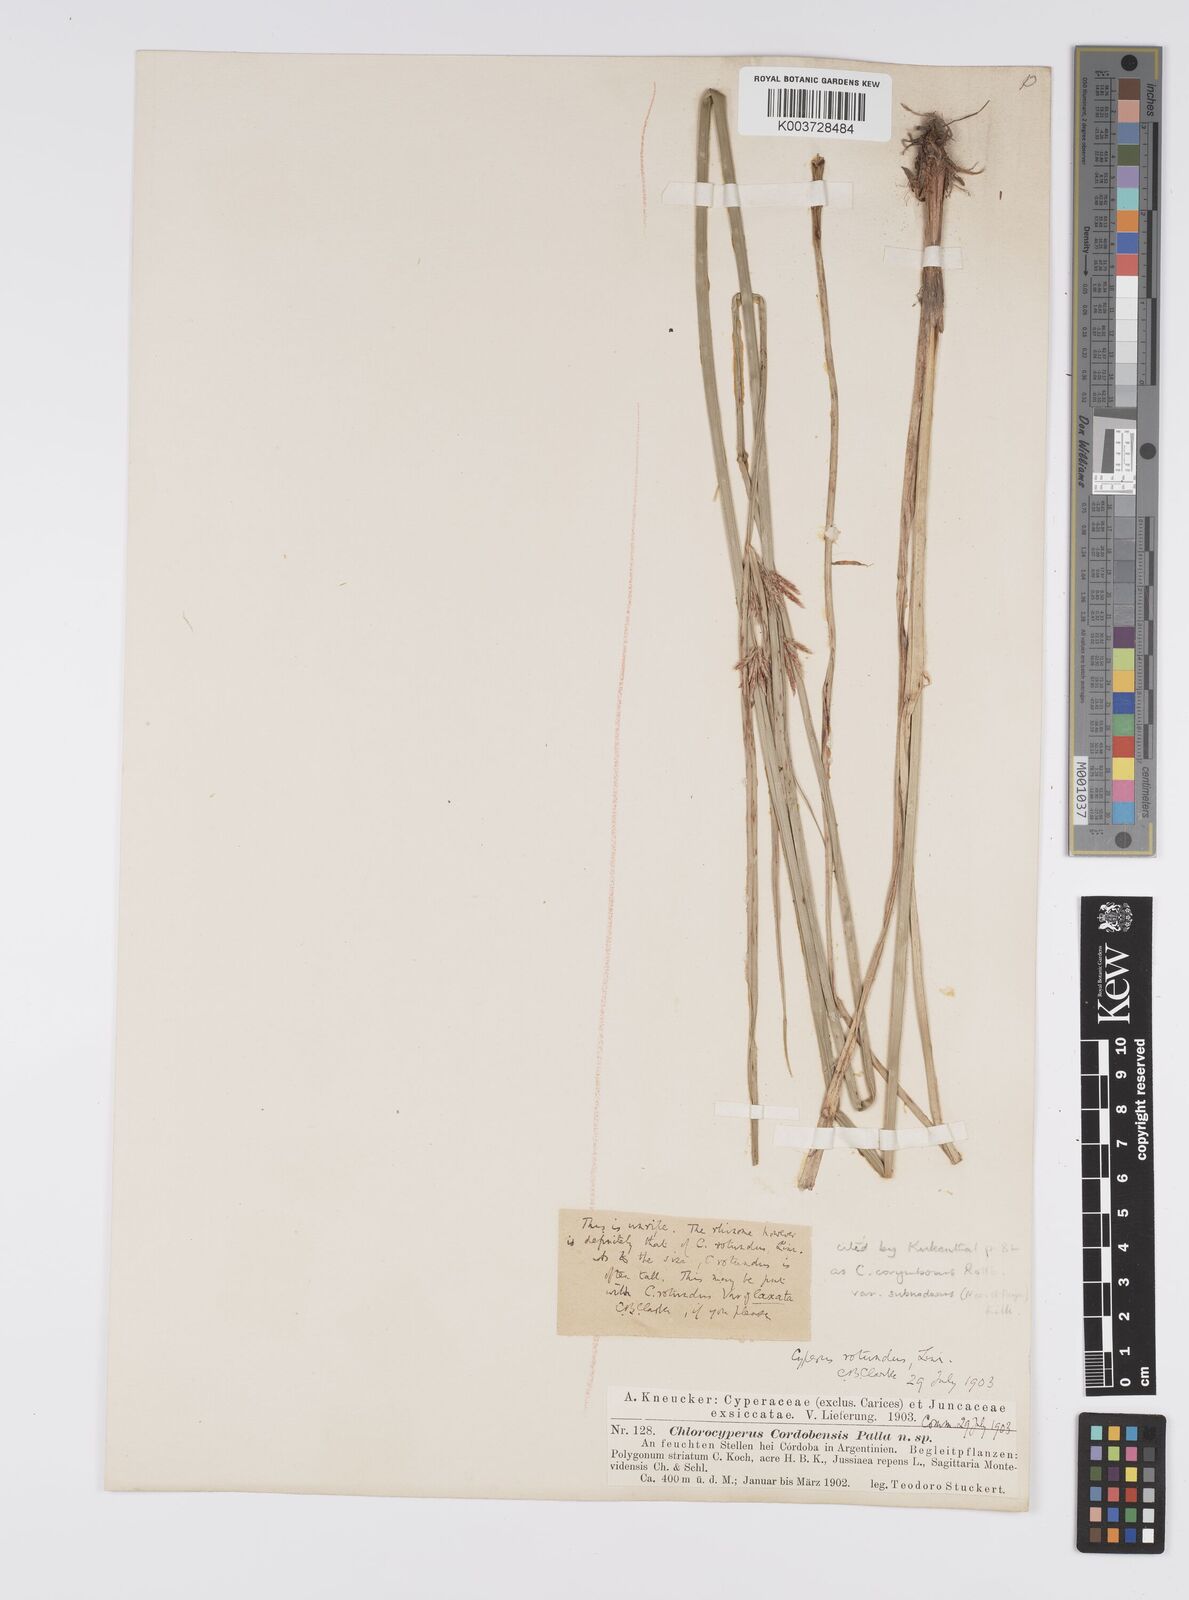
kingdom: Plantae
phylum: Tracheophyta
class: Liliopsida
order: Poales
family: Cyperaceae
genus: Cyperus
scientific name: Cyperus articulatus
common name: Jointed flatsedge
